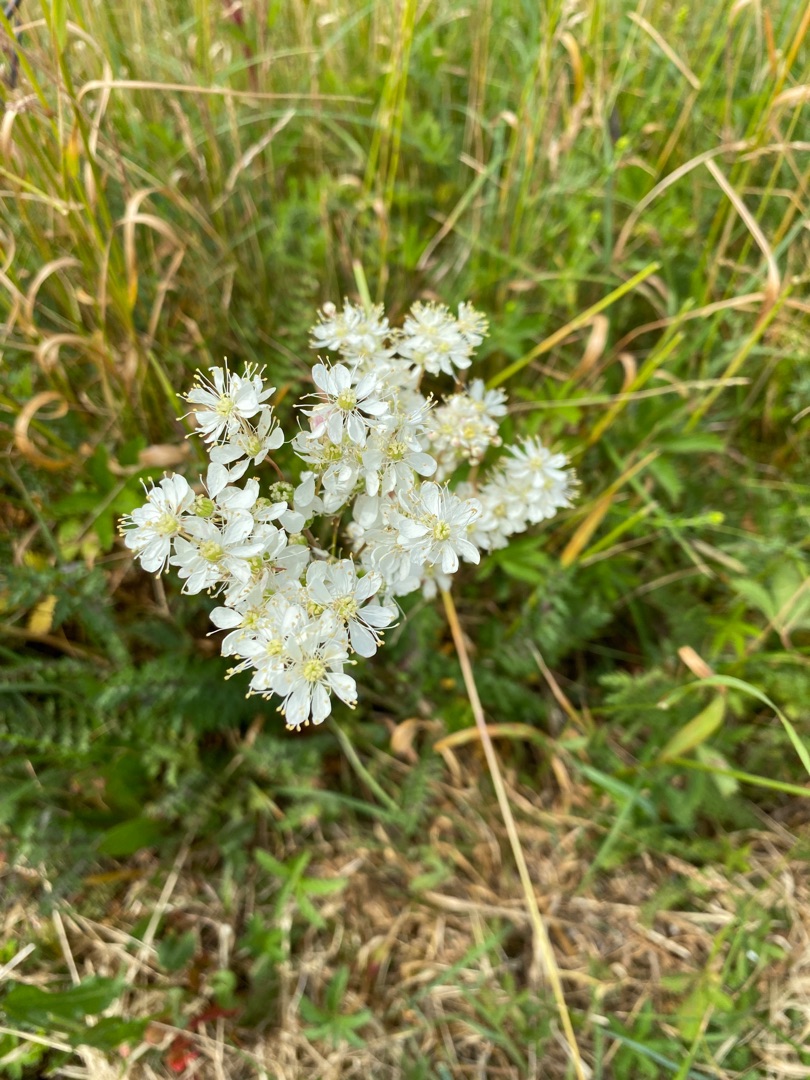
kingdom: Plantae
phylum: Tracheophyta
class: Magnoliopsida
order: Rosales
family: Rosaceae
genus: Filipendula
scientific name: Filipendula vulgaris
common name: Knoldet mjødurt
